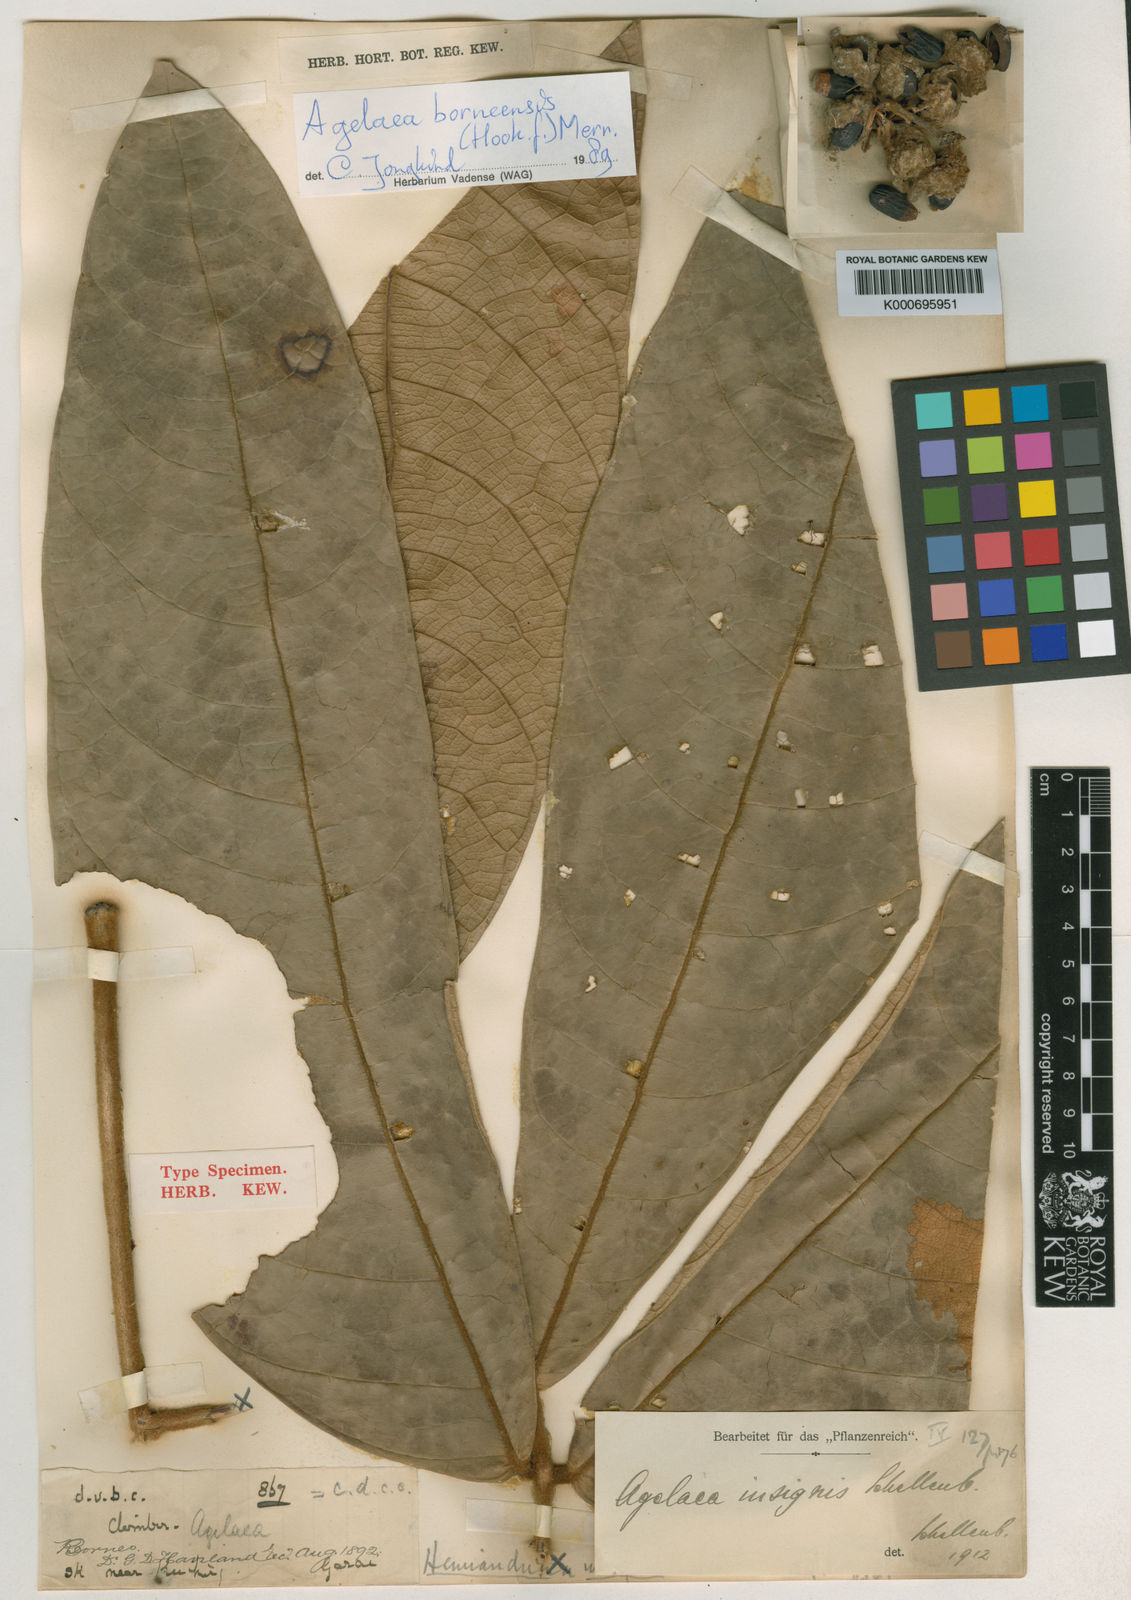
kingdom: Plantae
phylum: Tracheophyta
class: Magnoliopsida
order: Oxalidales
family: Connaraceae
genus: Agelaea
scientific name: Agelaea insignis
